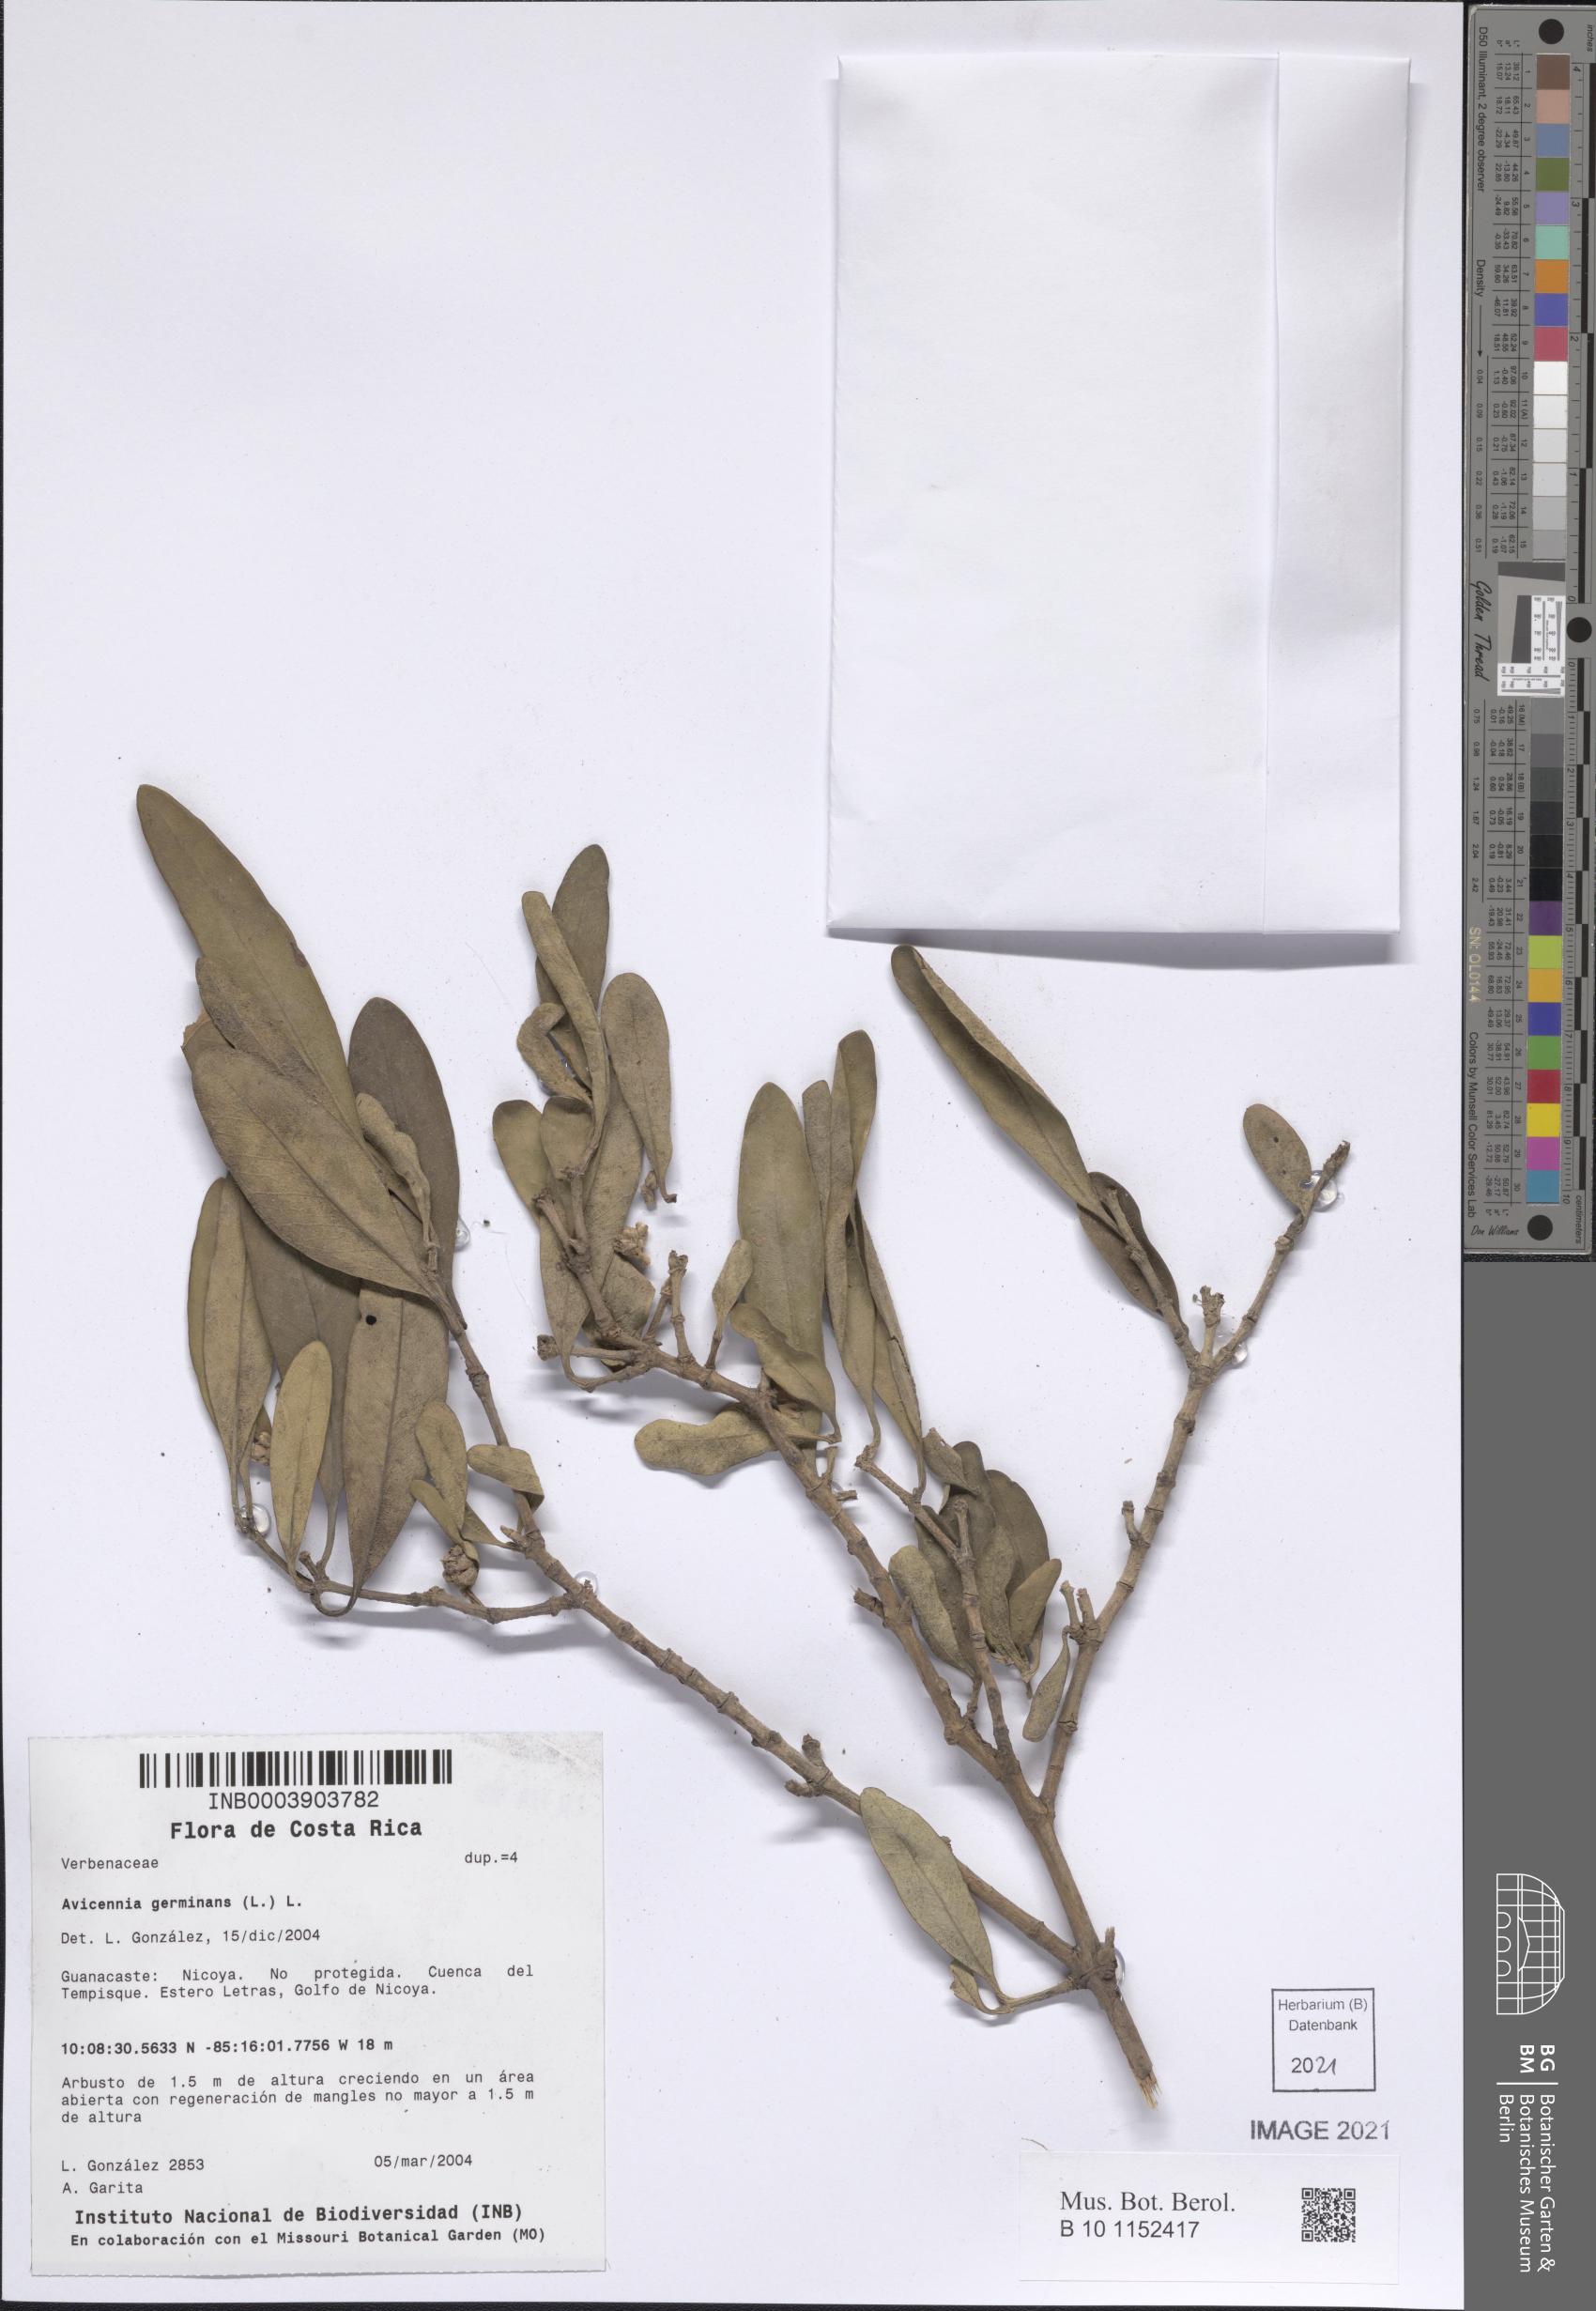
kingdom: Plantae
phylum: Tracheophyta
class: Magnoliopsida
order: Lamiales
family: Acanthaceae
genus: Avicennia
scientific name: Avicennia germinans
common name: Black mangrove
